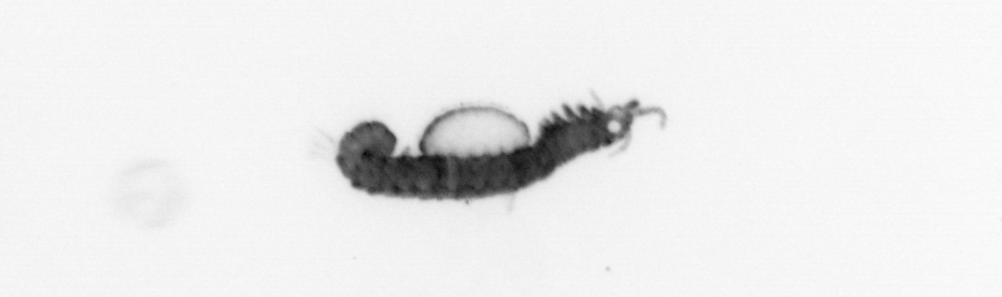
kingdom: Animalia
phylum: Annelida
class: Polychaeta
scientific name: Polychaeta
